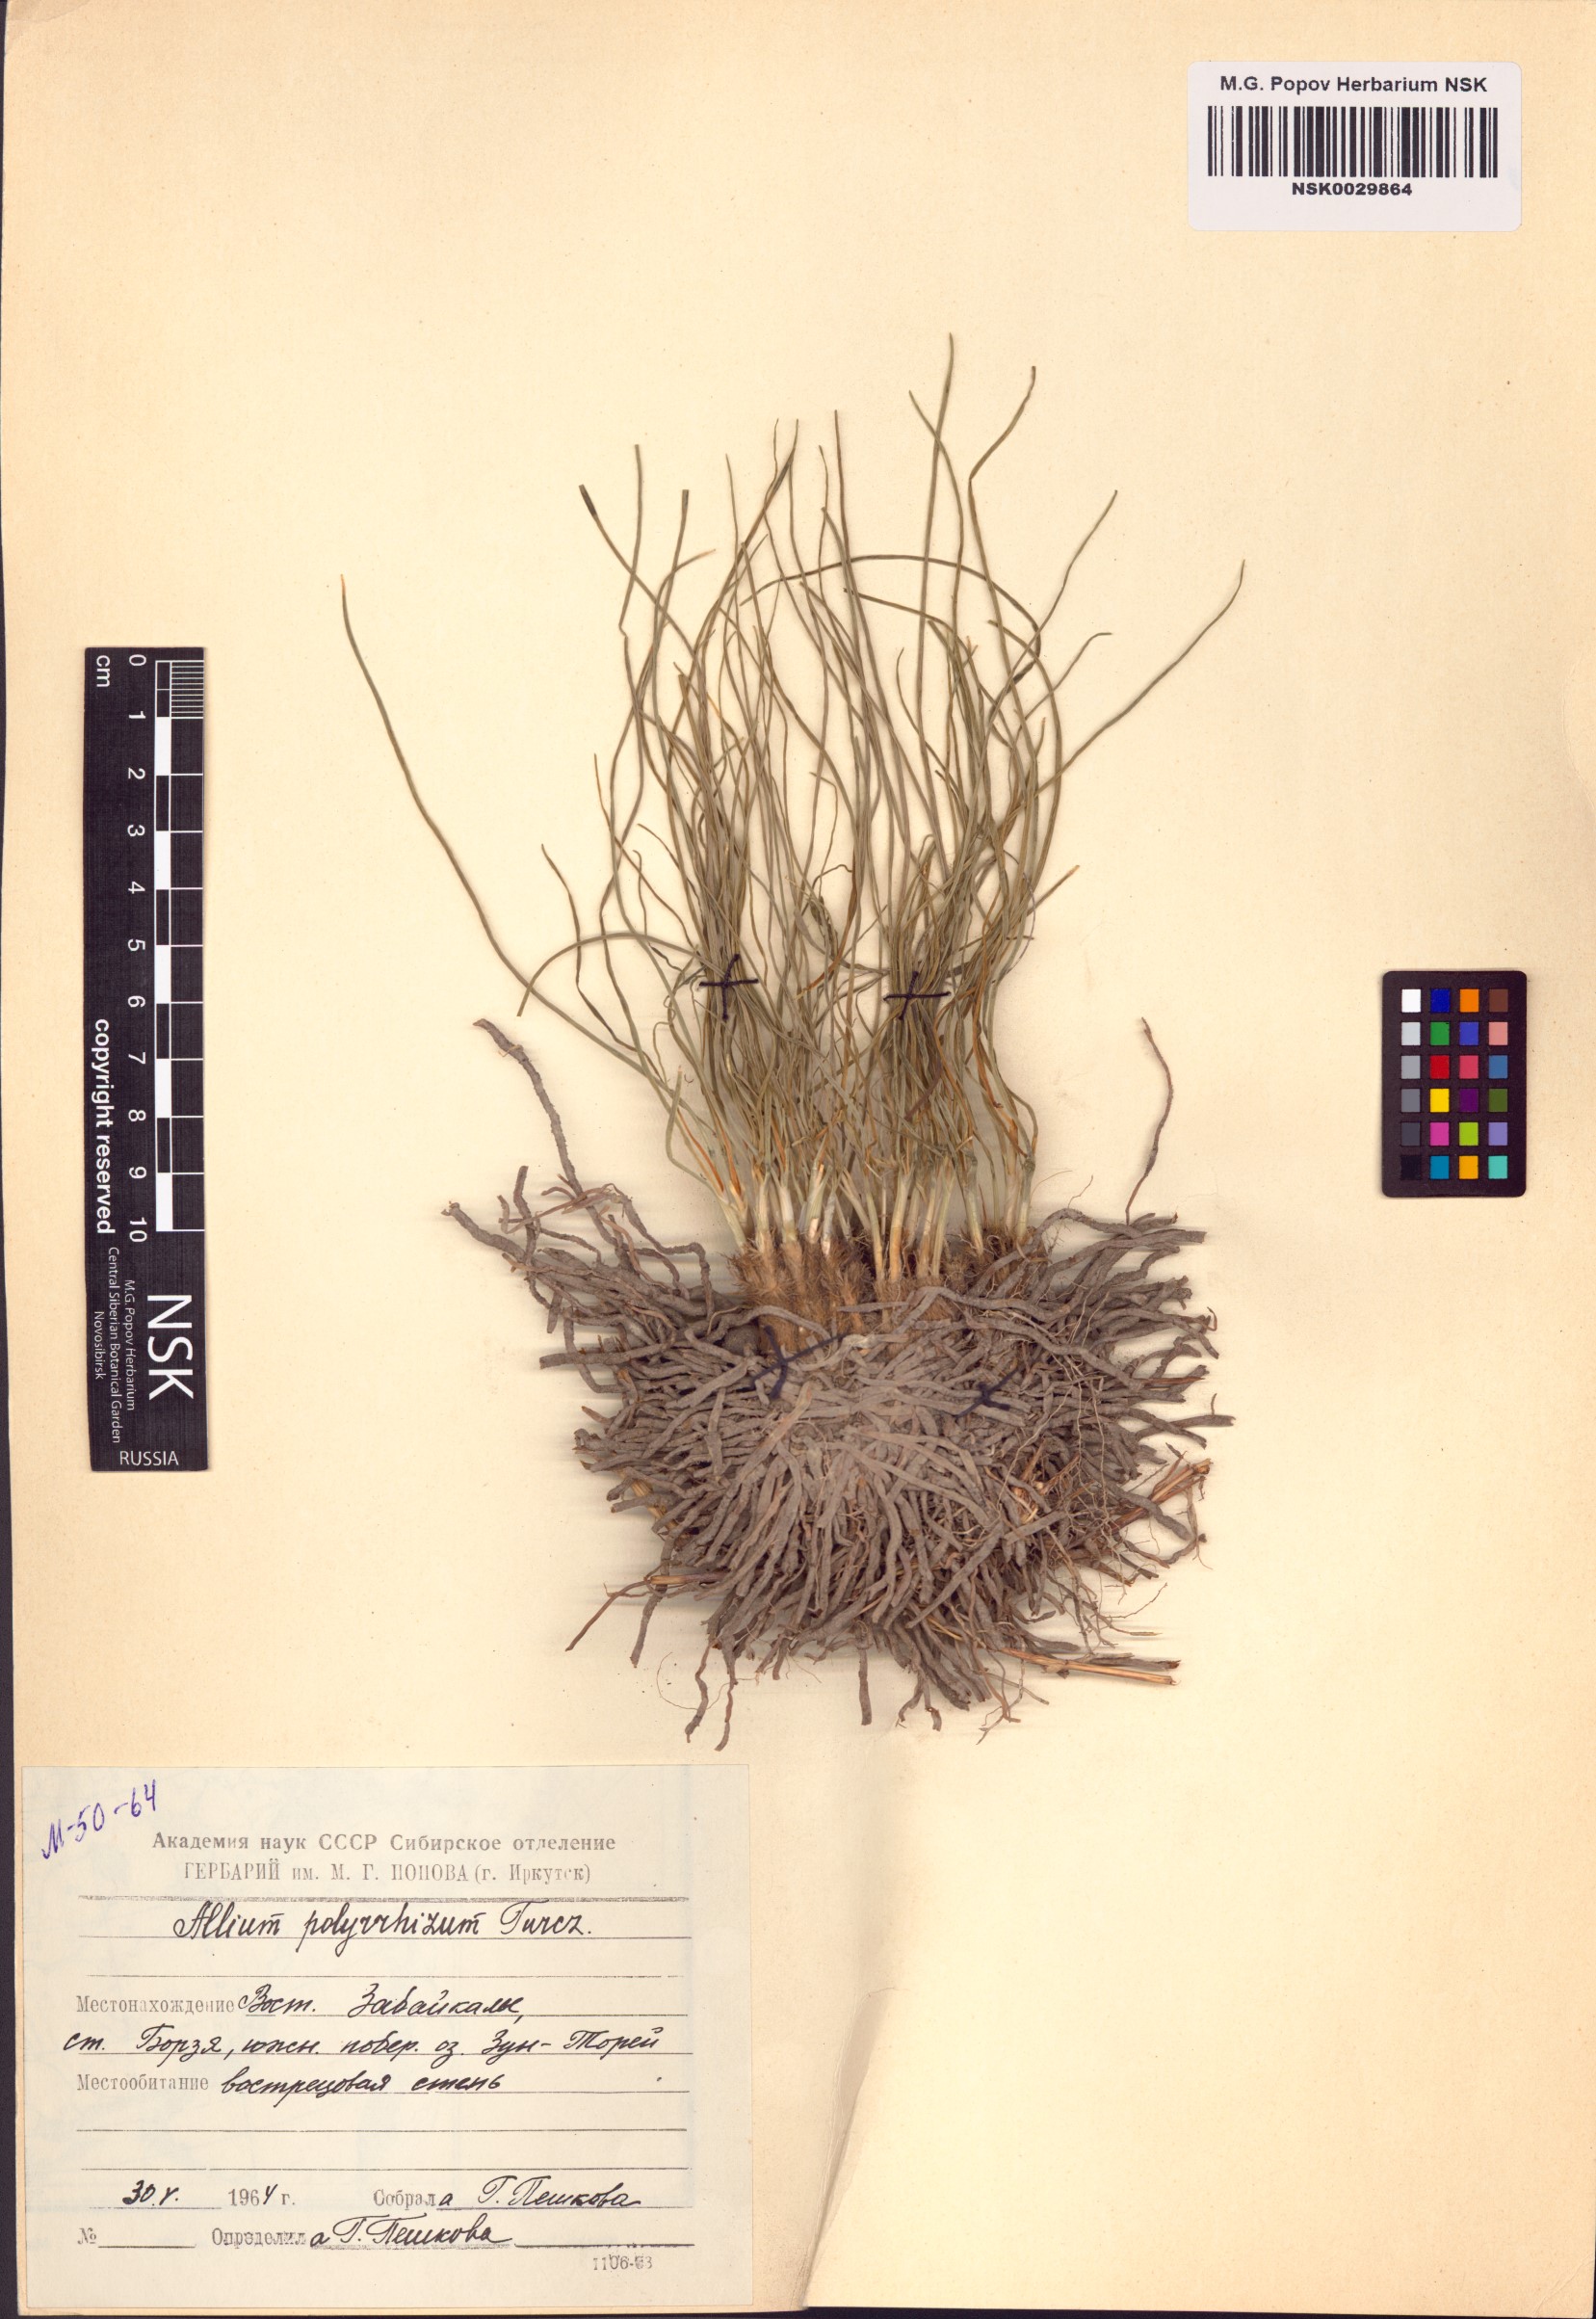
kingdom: Plantae
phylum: Tracheophyta
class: Liliopsida
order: Asparagales
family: Amaryllidaceae
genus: Allium
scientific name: Allium polyrhizum
